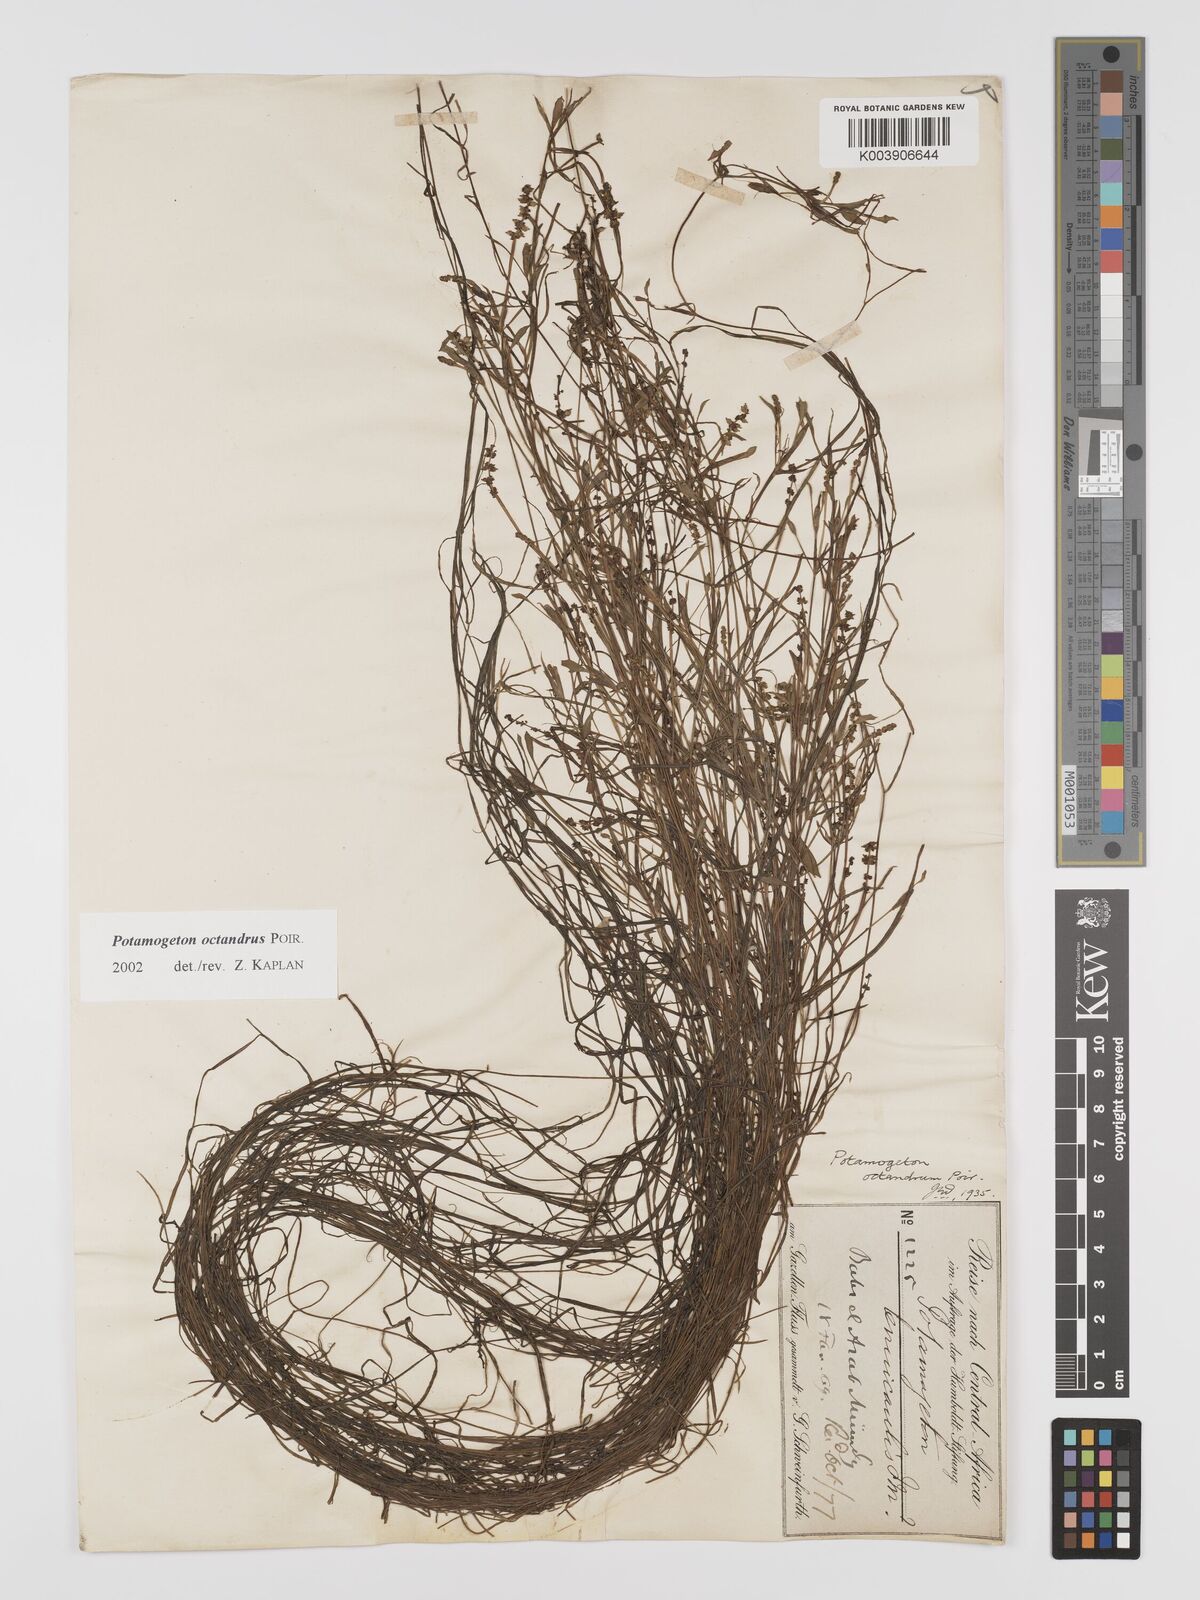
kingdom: Plantae
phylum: Tracheophyta
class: Liliopsida
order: Alismatales
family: Potamogetonaceae
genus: Potamogeton
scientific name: Potamogeton octandrus
